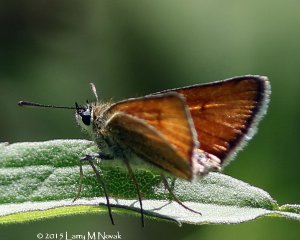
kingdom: Animalia
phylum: Arthropoda
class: Insecta
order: Lepidoptera
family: Hesperiidae
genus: Thymelicus
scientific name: Thymelicus lineola
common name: European Skipper
